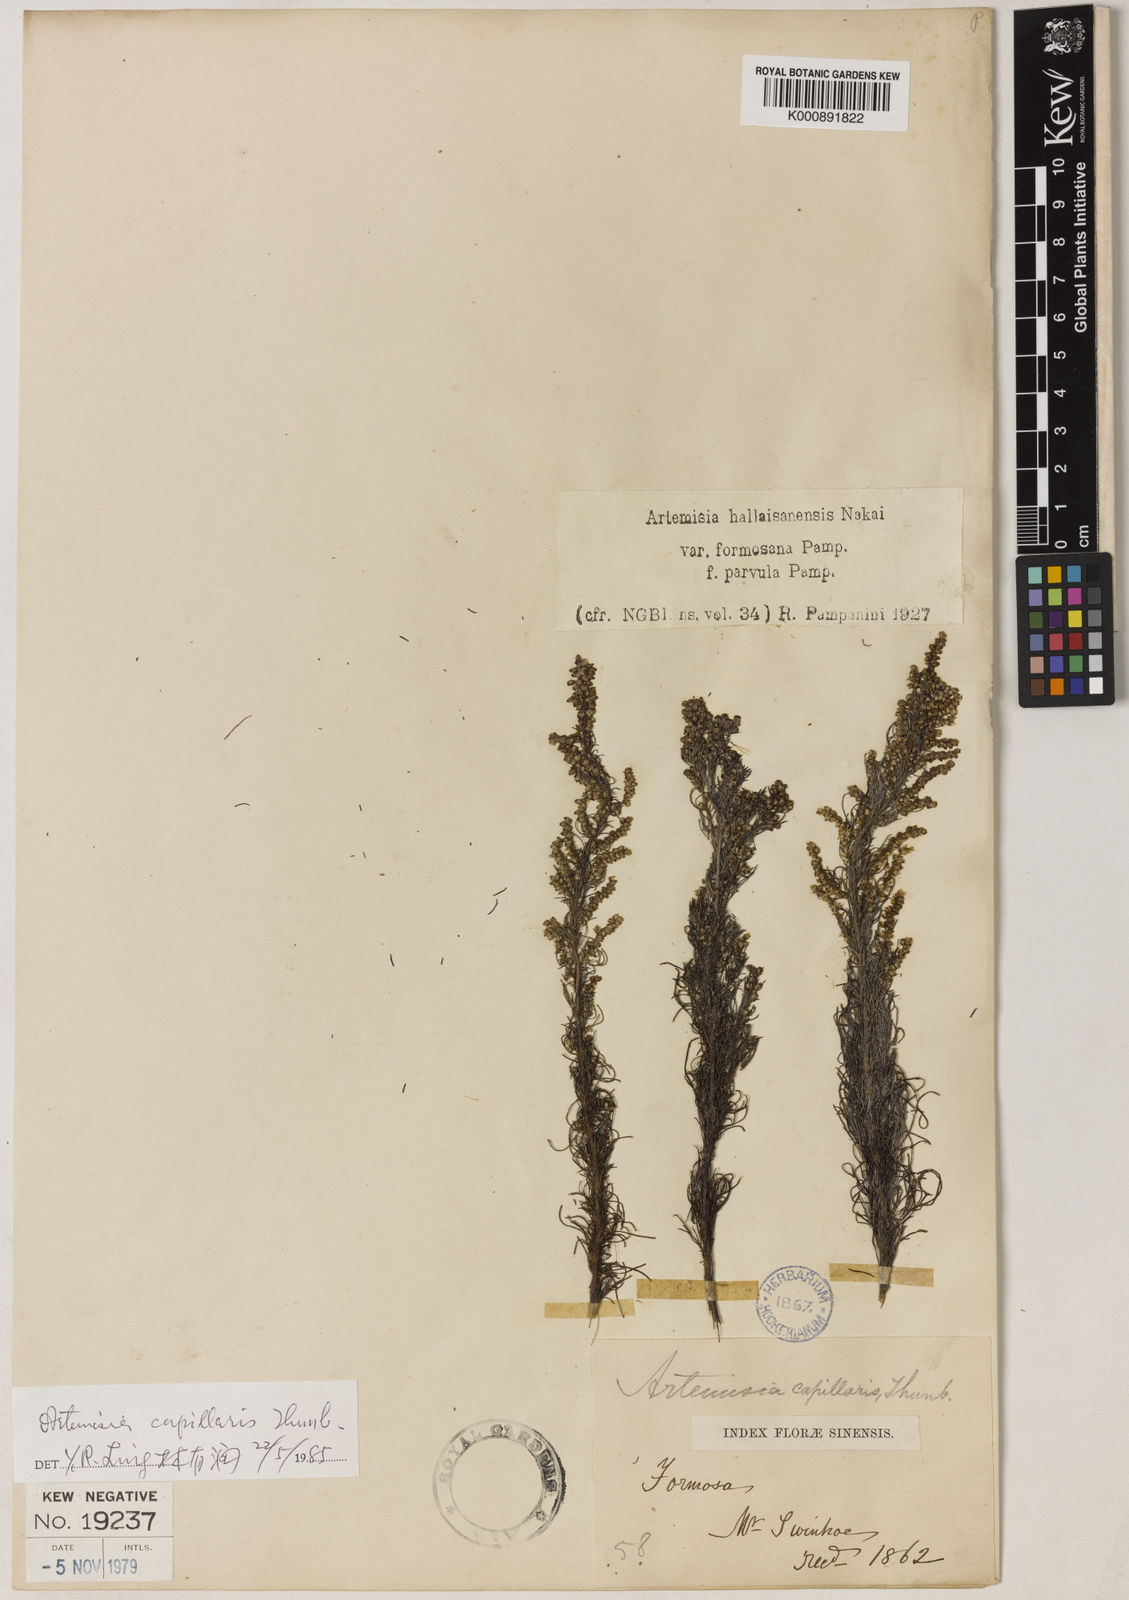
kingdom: Plantae
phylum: Tracheophyta
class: Magnoliopsida
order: Asterales
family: Asteraceae
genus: Artemisia
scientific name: Artemisia capillaris
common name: Yin-chen wormwood
